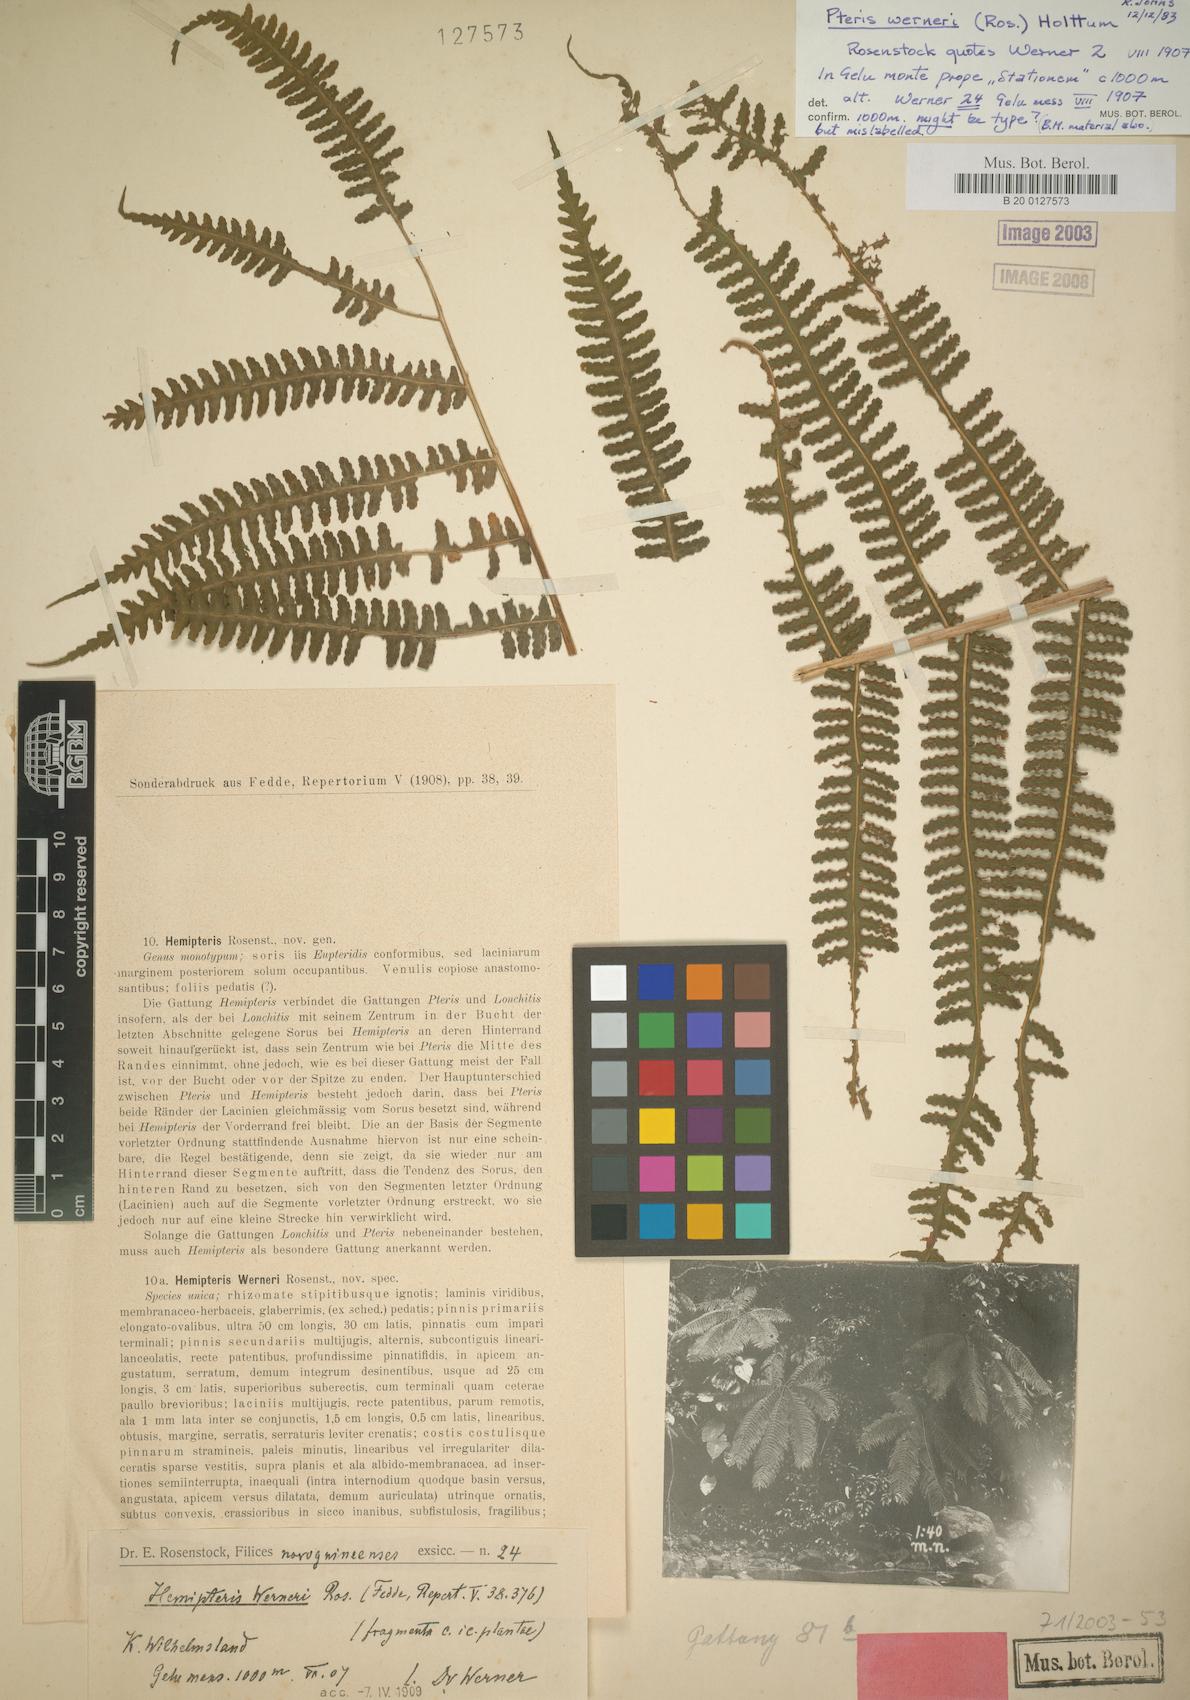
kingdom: Plantae
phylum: Tracheophyta
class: Polypodiopsida
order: Polypodiales
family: Pteridaceae
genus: Pteris
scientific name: Pteris werneri
